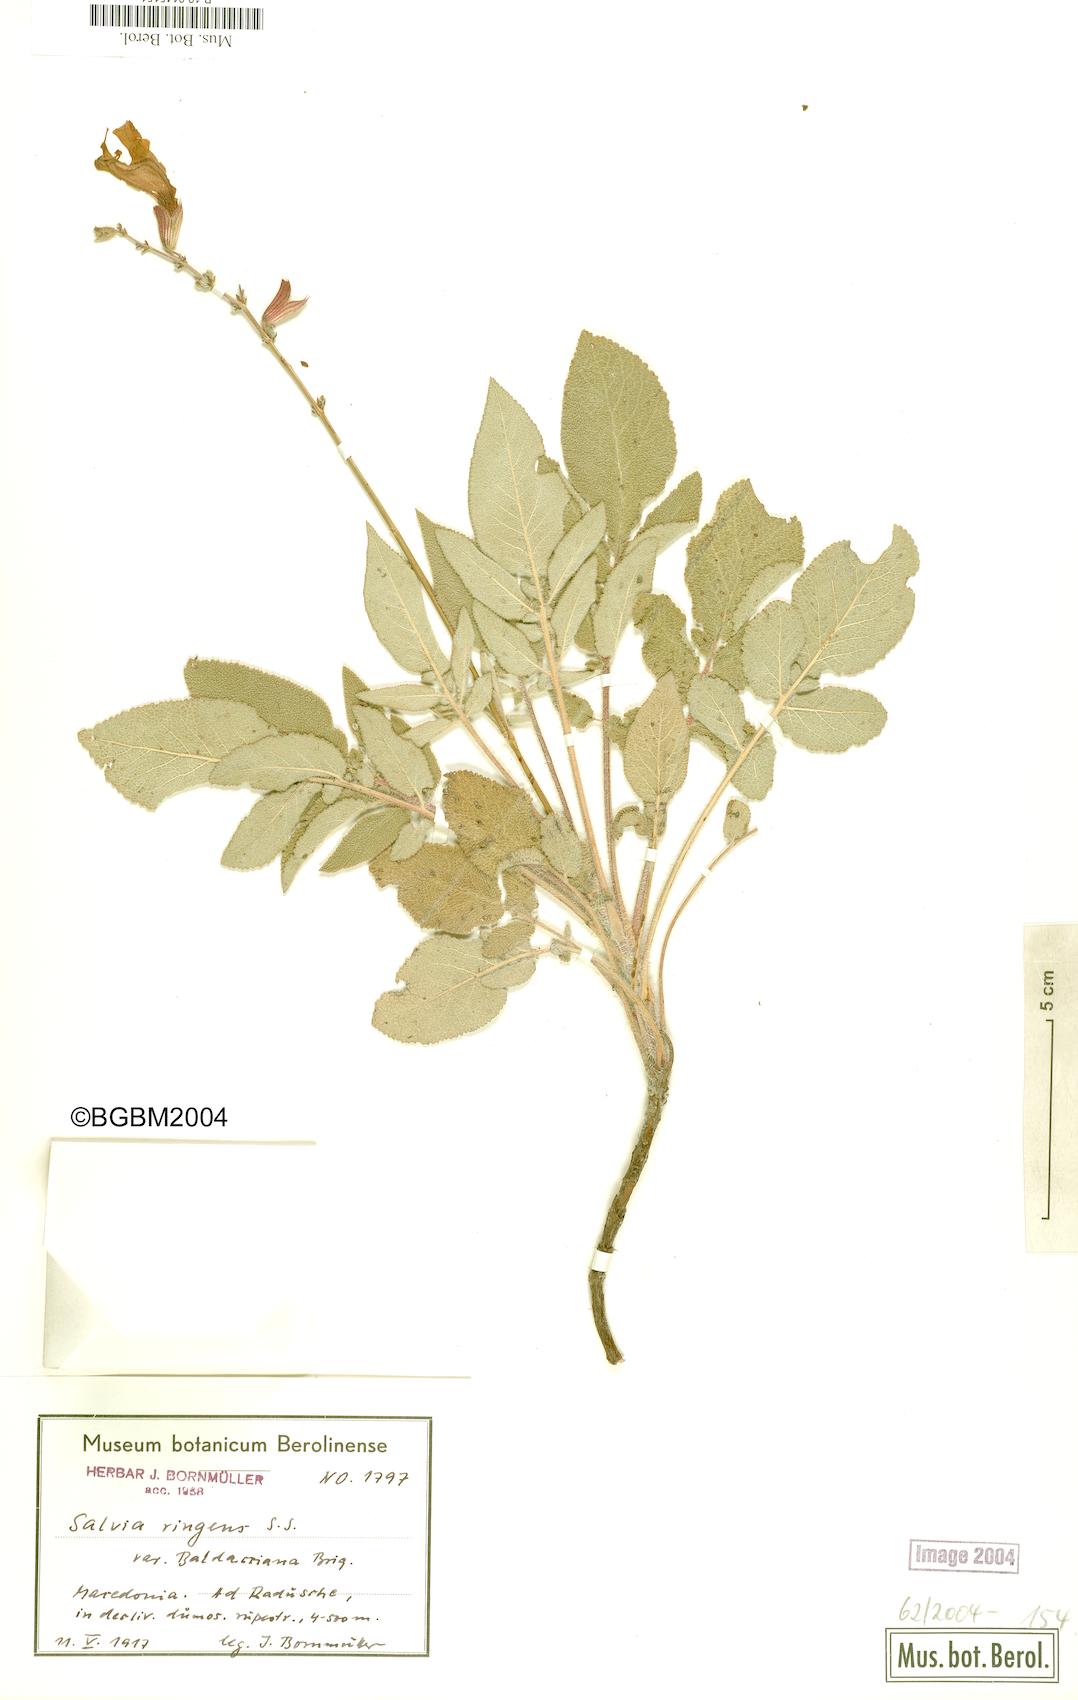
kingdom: Plantae
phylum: Tracheophyta
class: Magnoliopsida
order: Lamiales
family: Lamiaceae
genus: Salvia
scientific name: Salvia ringens
